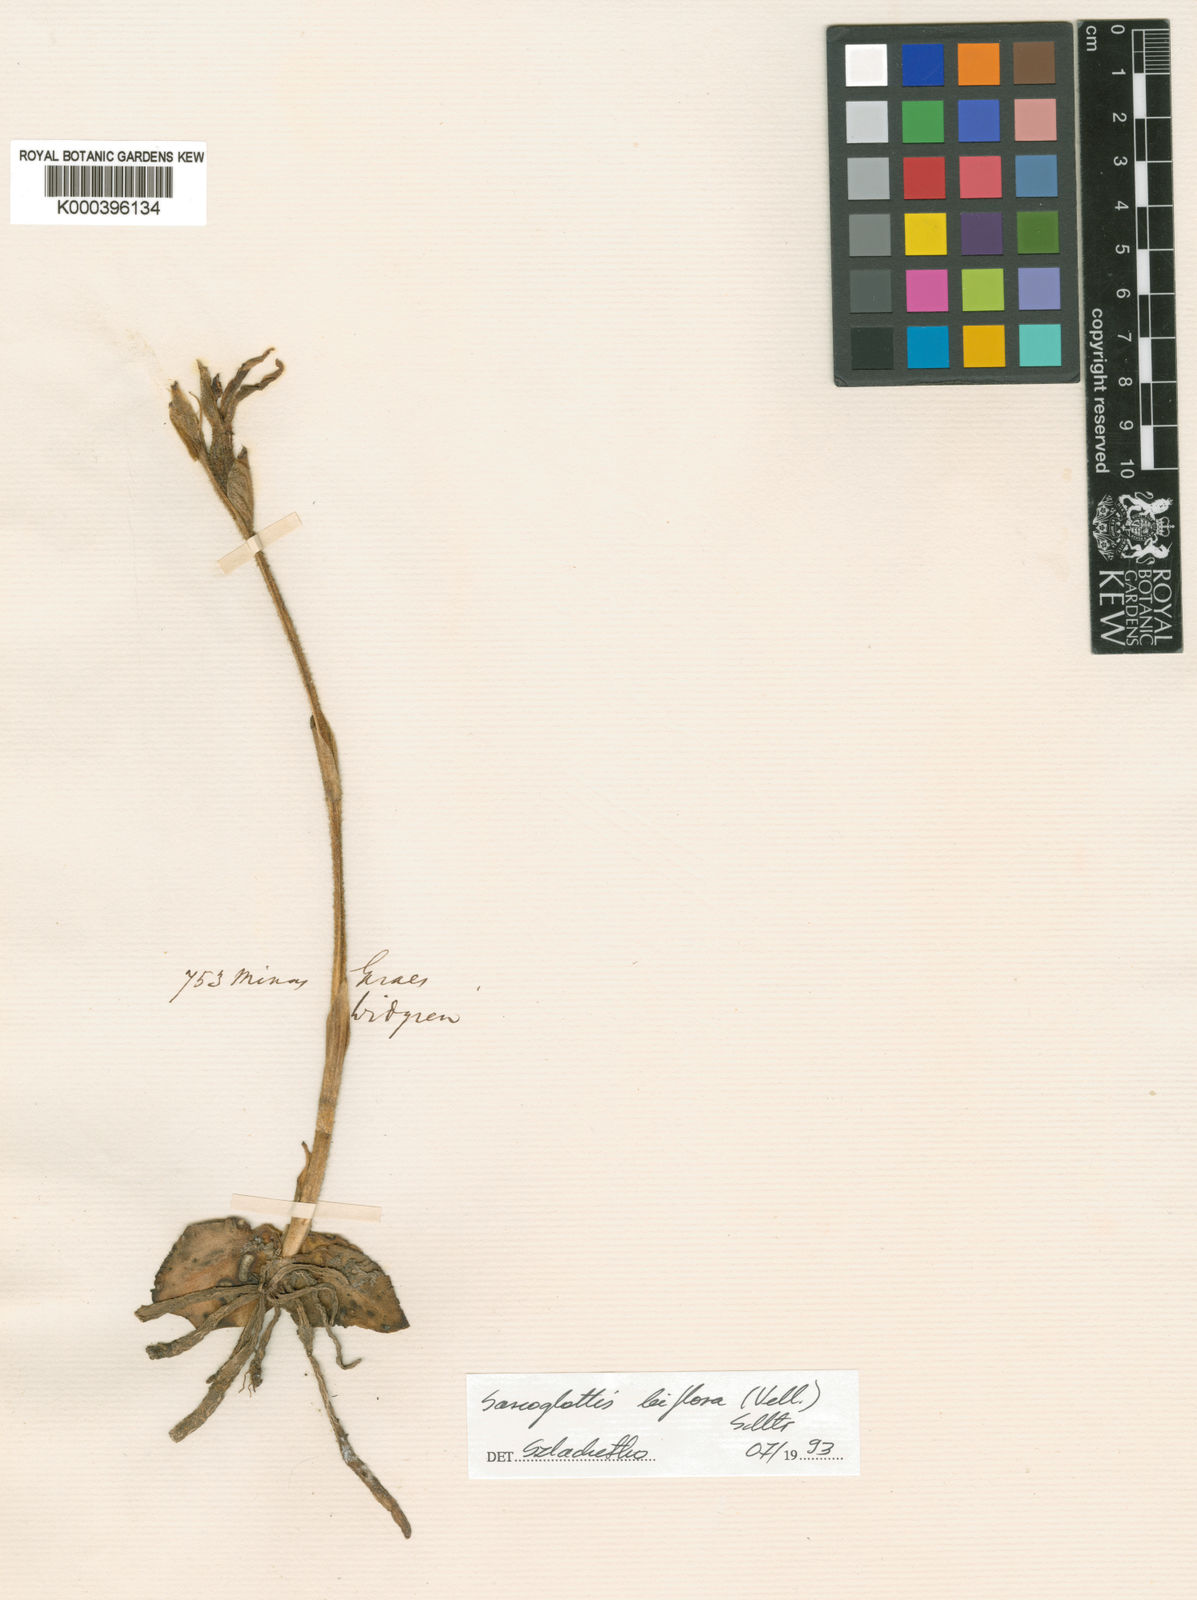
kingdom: Plantae
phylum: Tracheophyta
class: Liliopsida
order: Asparagales
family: Orchidaceae
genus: Sarcoglottis
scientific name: Sarcoglottis biflora
